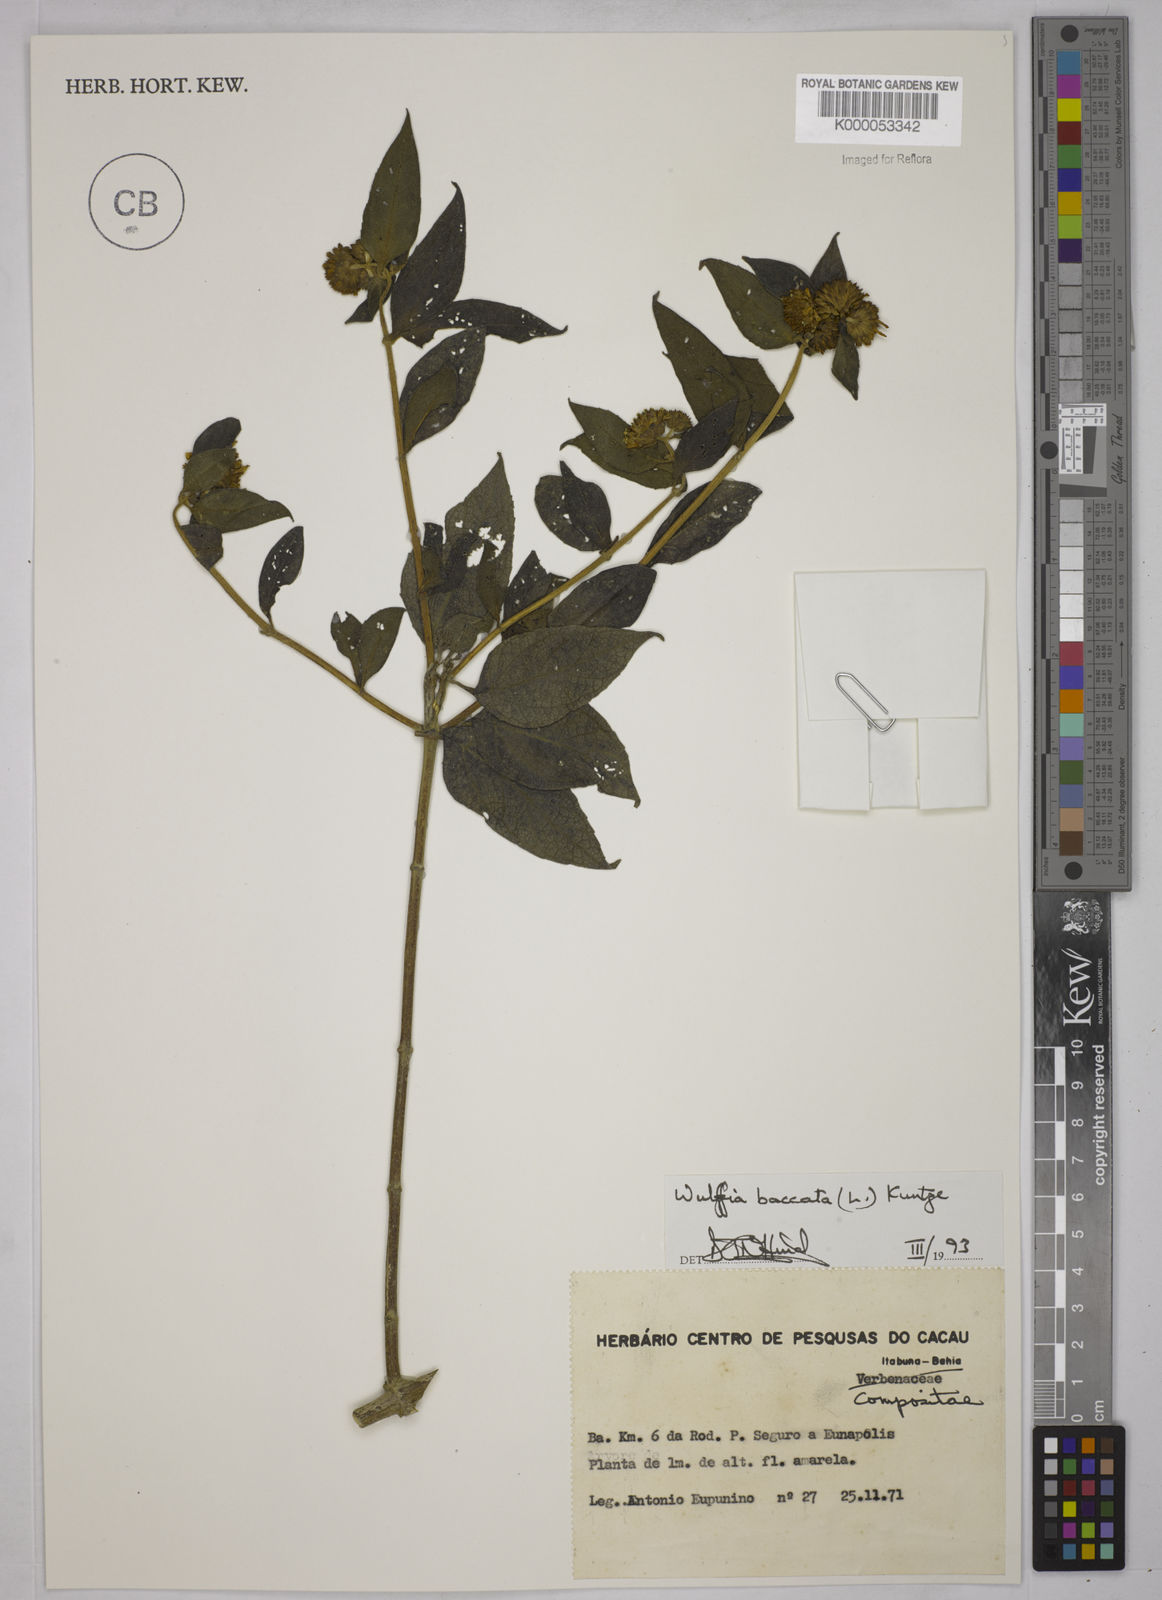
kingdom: Plantae
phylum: Tracheophyta
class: Magnoliopsida
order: Asterales
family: Asteraceae
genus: Tilesia
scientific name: Tilesia baccata
